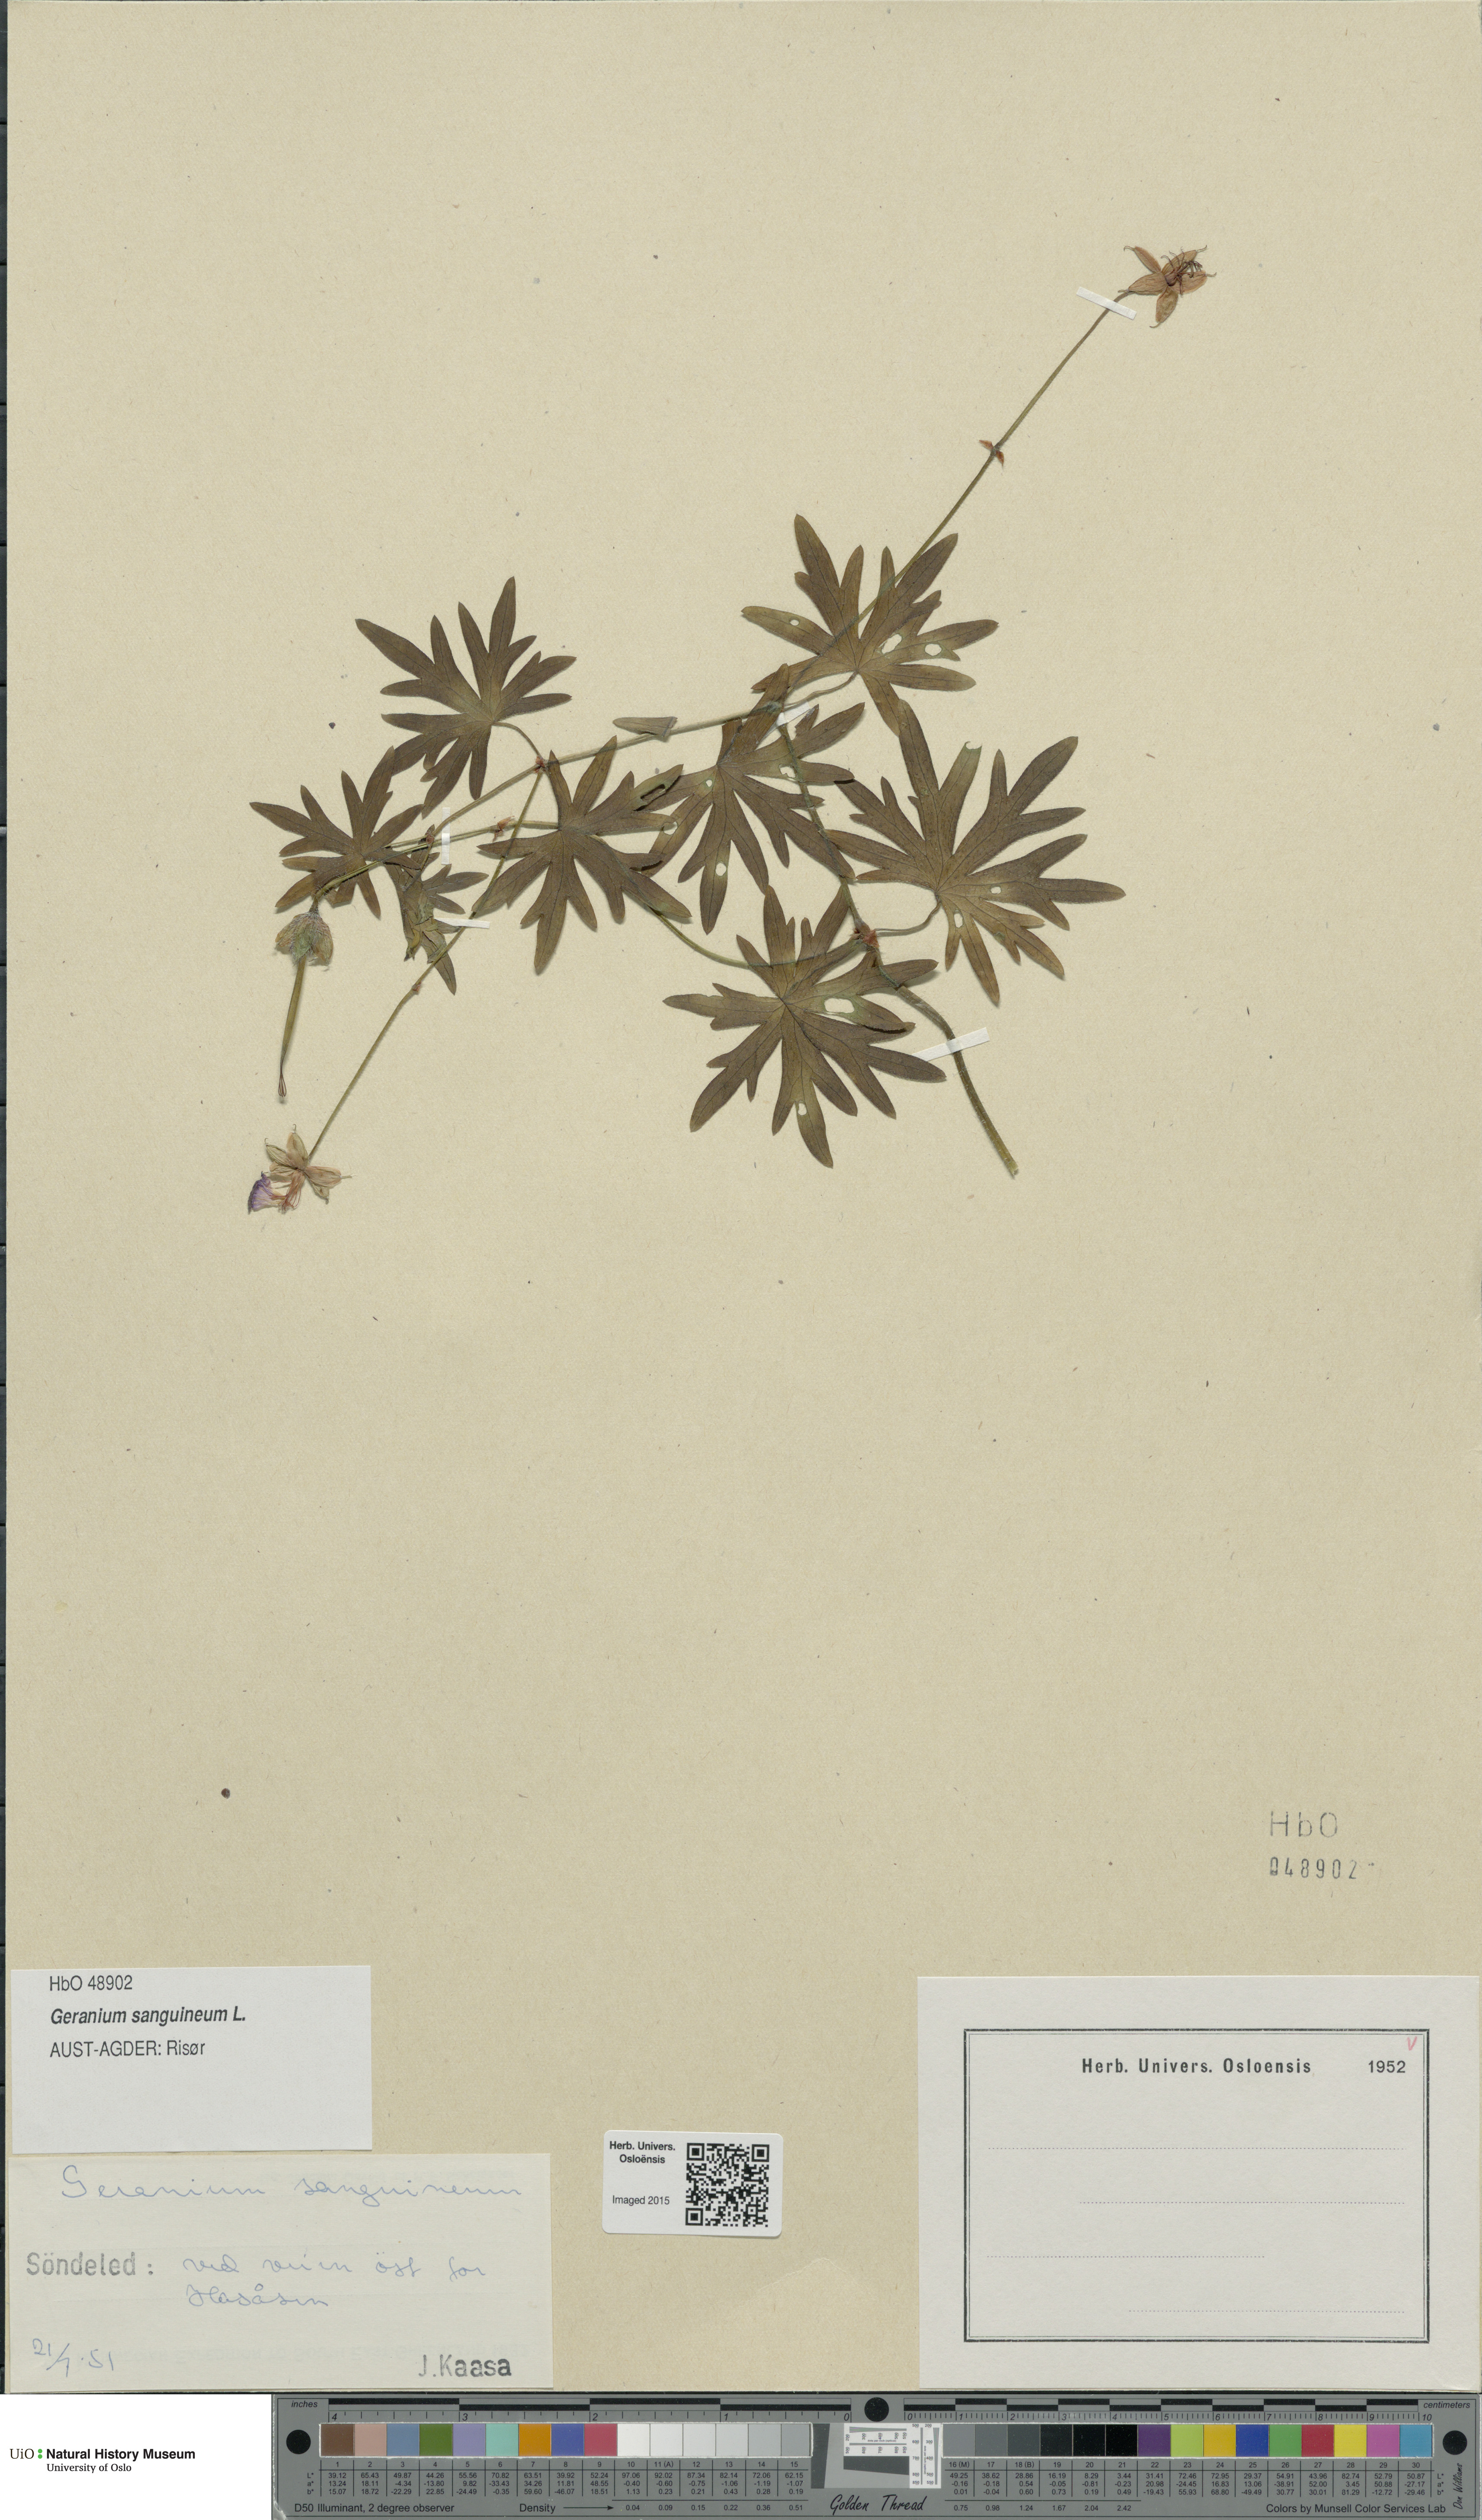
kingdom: Plantae
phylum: Tracheophyta
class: Magnoliopsida
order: Geraniales
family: Geraniaceae
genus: Geranium
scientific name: Geranium sanguineum
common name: Bloody crane's-bill
